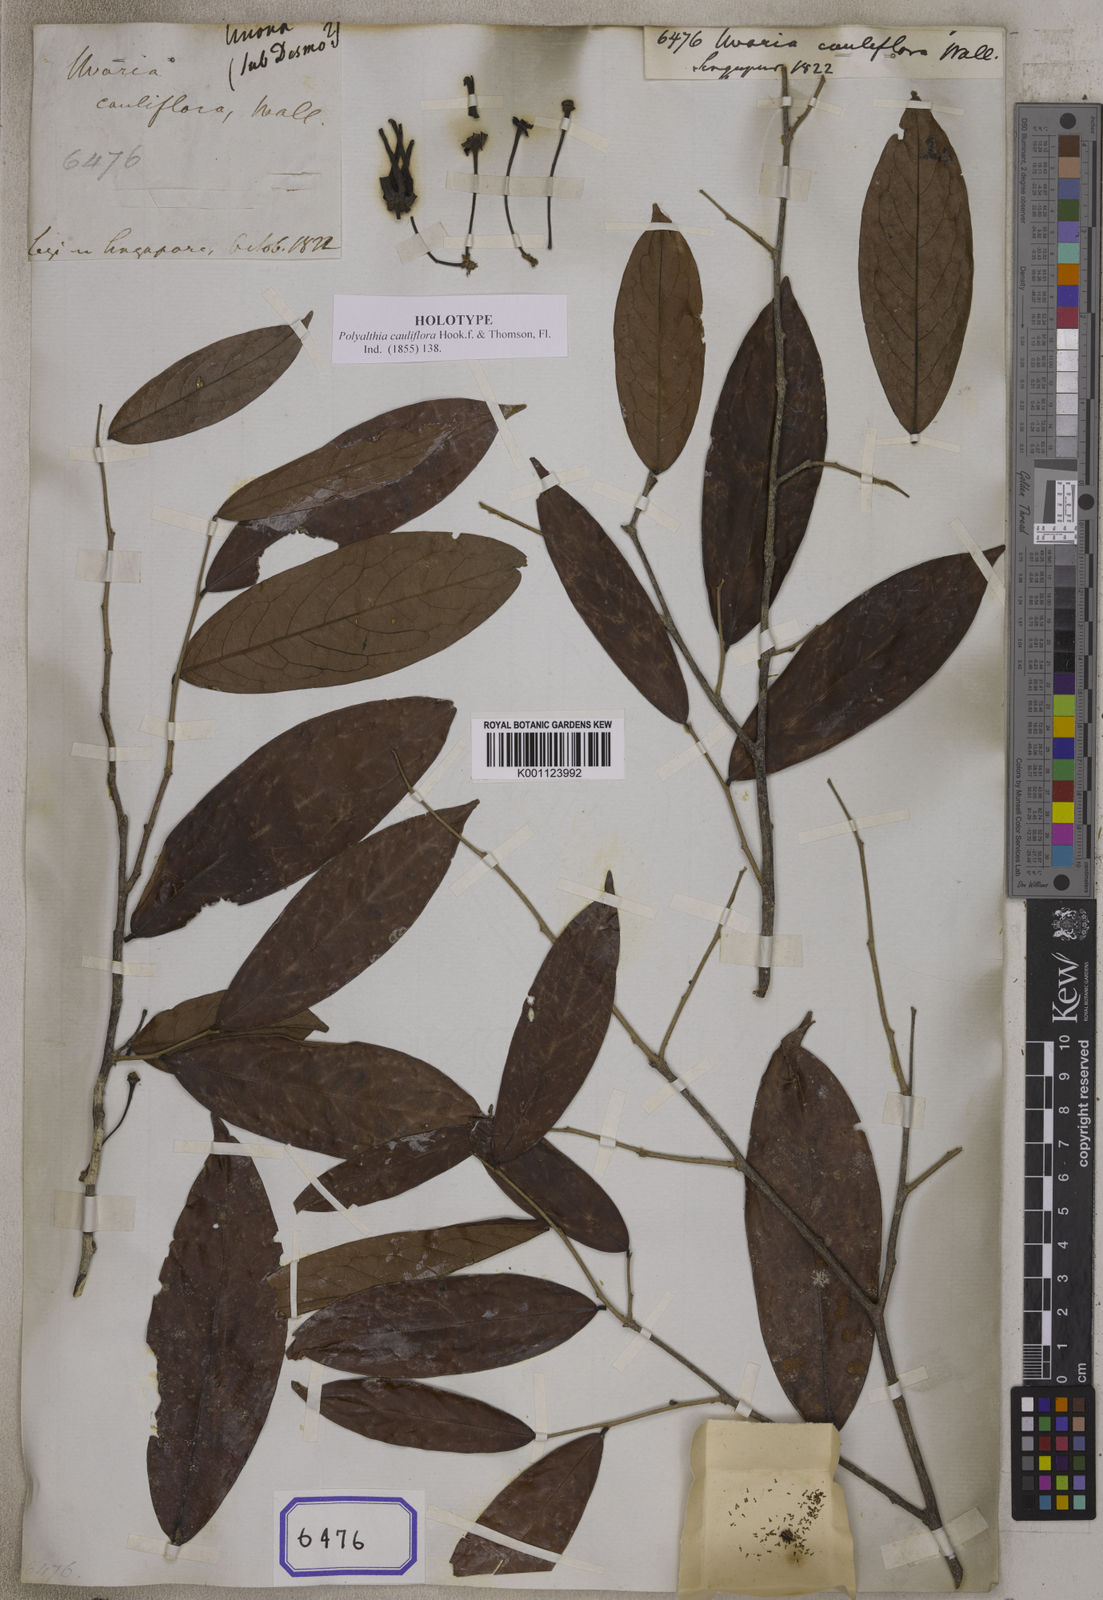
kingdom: Plantae
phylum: Tracheophyta
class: Magnoliopsida
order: Magnoliales
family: Annonaceae
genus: Polyalthia
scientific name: Polyalthia cauliflora
